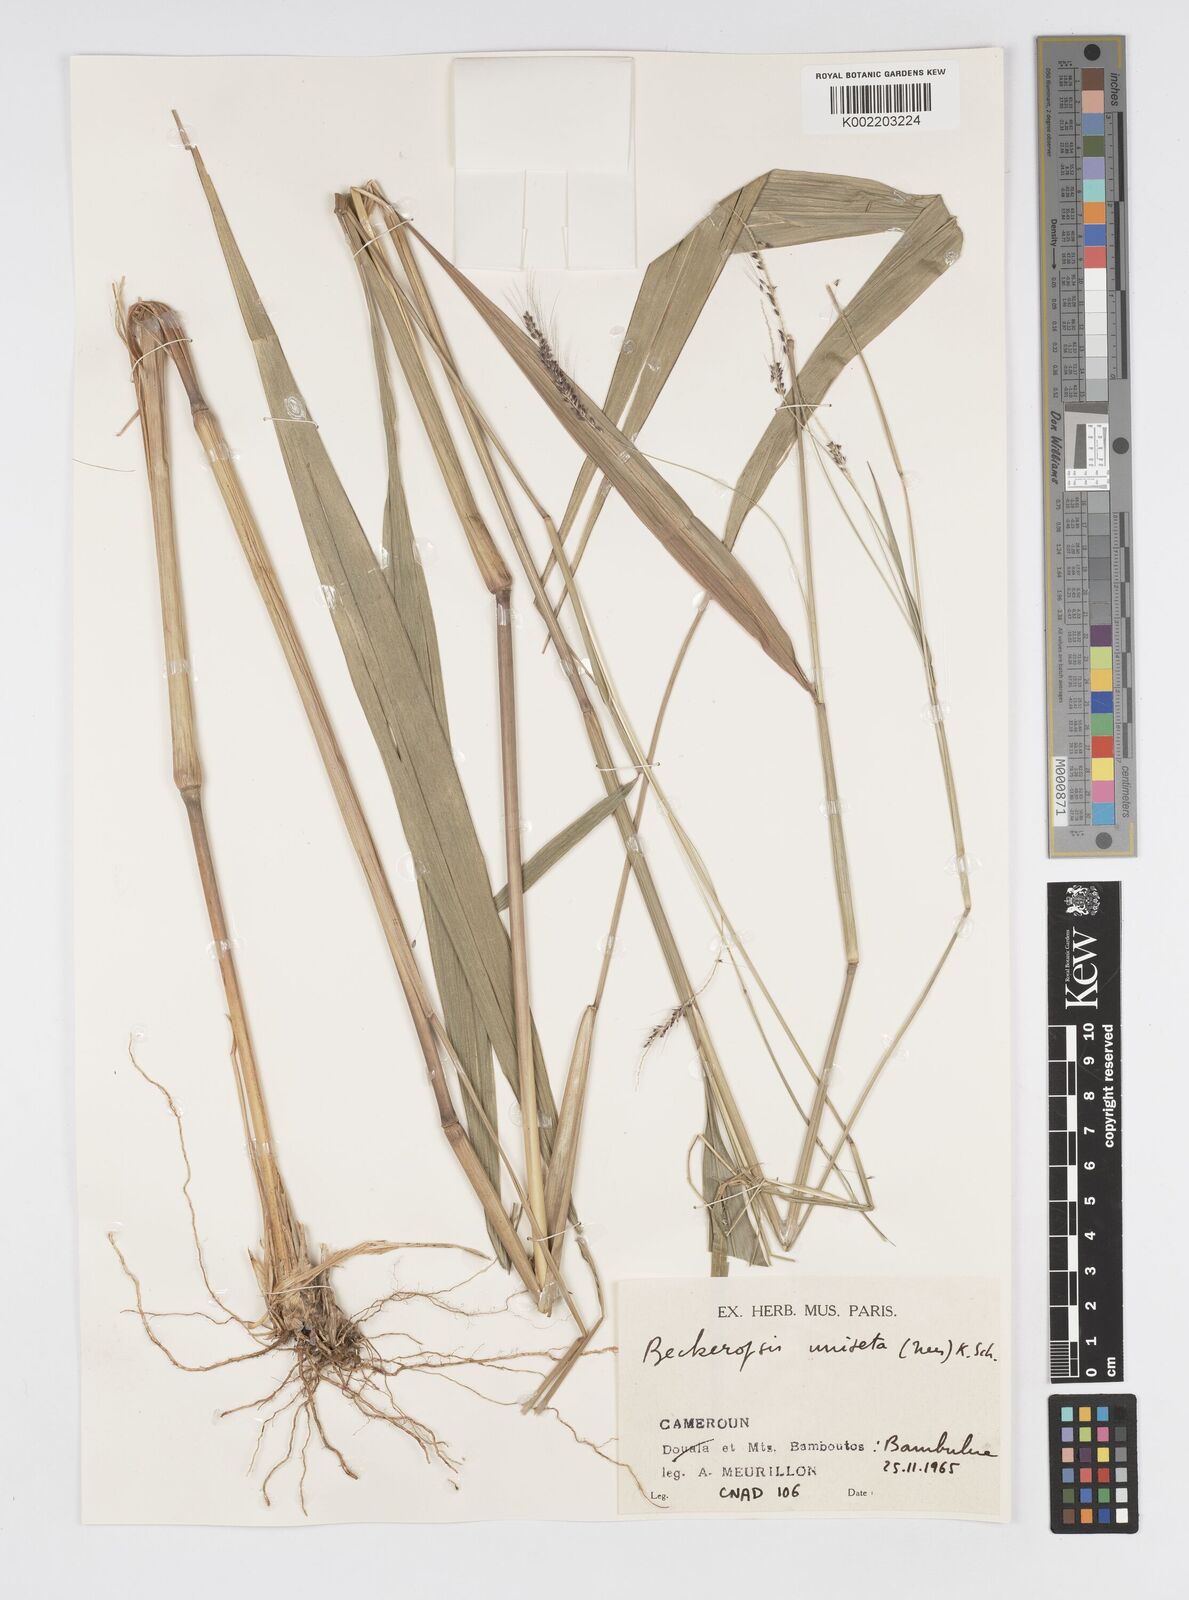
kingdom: Plantae
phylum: Tracheophyta
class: Liliopsida
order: Poales
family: Poaceae
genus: Cenchrus
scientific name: Cenchrus unisetus
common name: Natal grass
